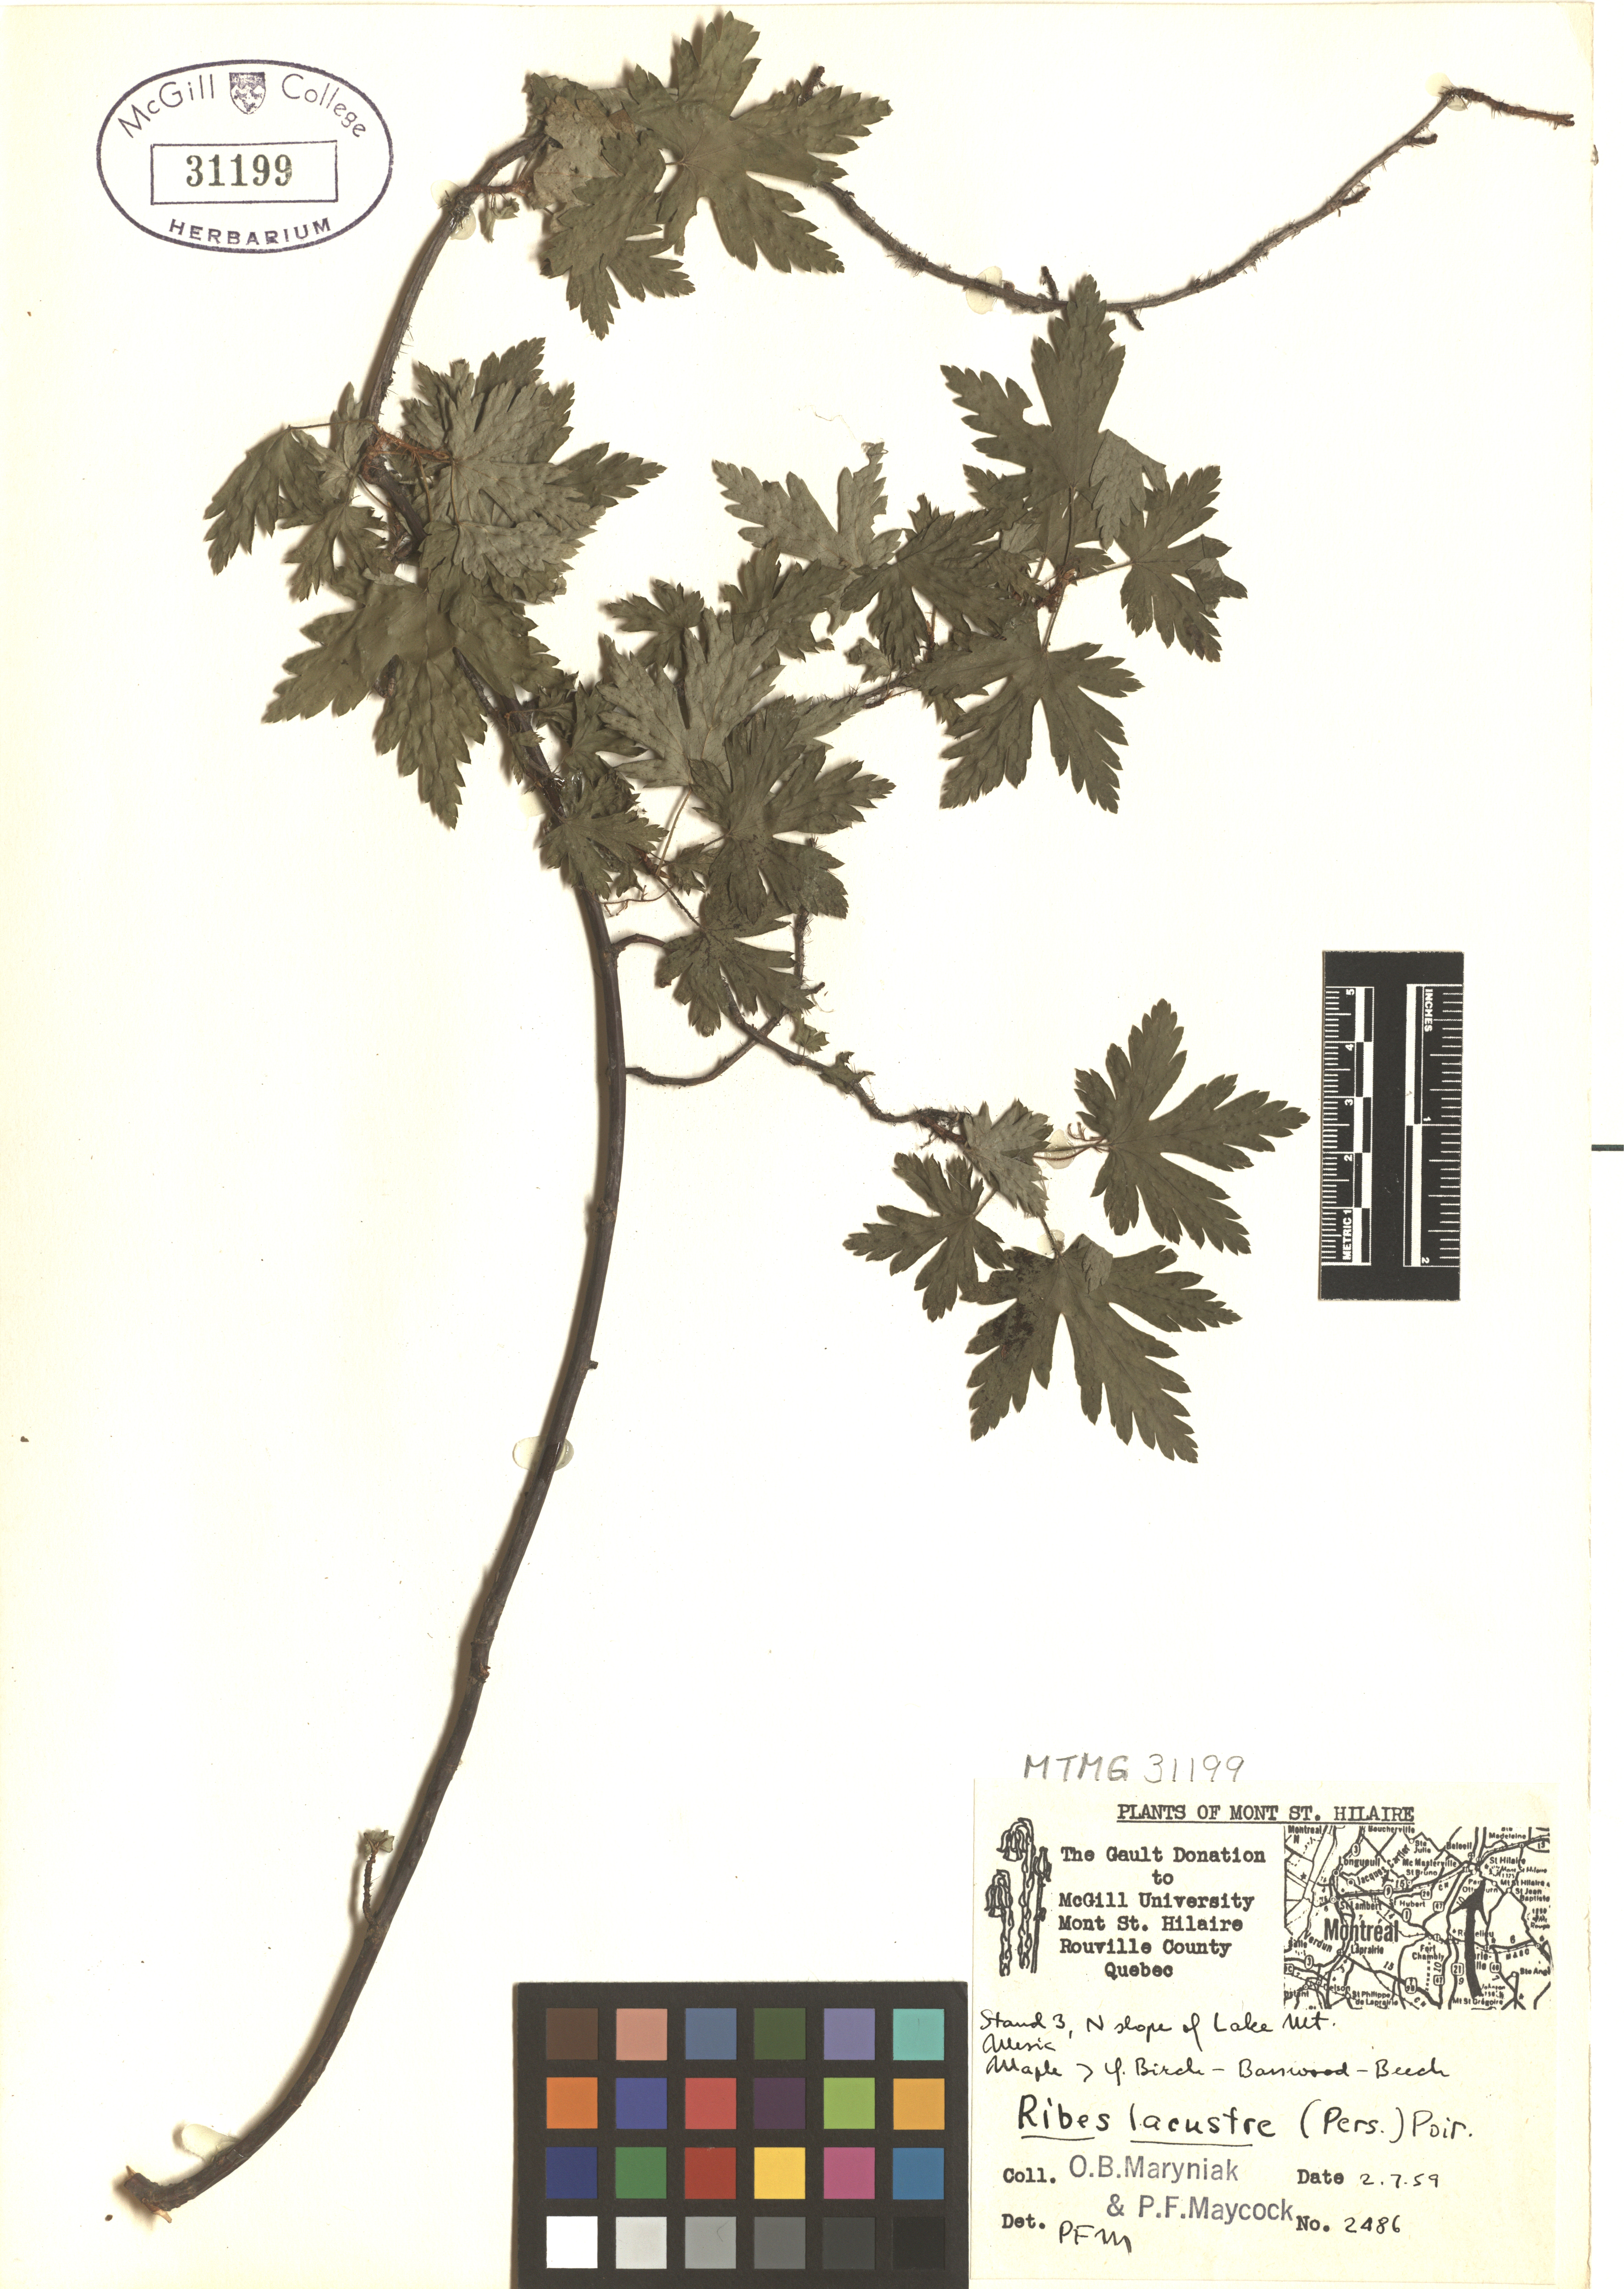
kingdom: Plantae
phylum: Tracheophyta
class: Magnoliopsida
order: Saxifragales
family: Grossulariaceae
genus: Ribes
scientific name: Ribes lacustre
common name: Black gooseberry
